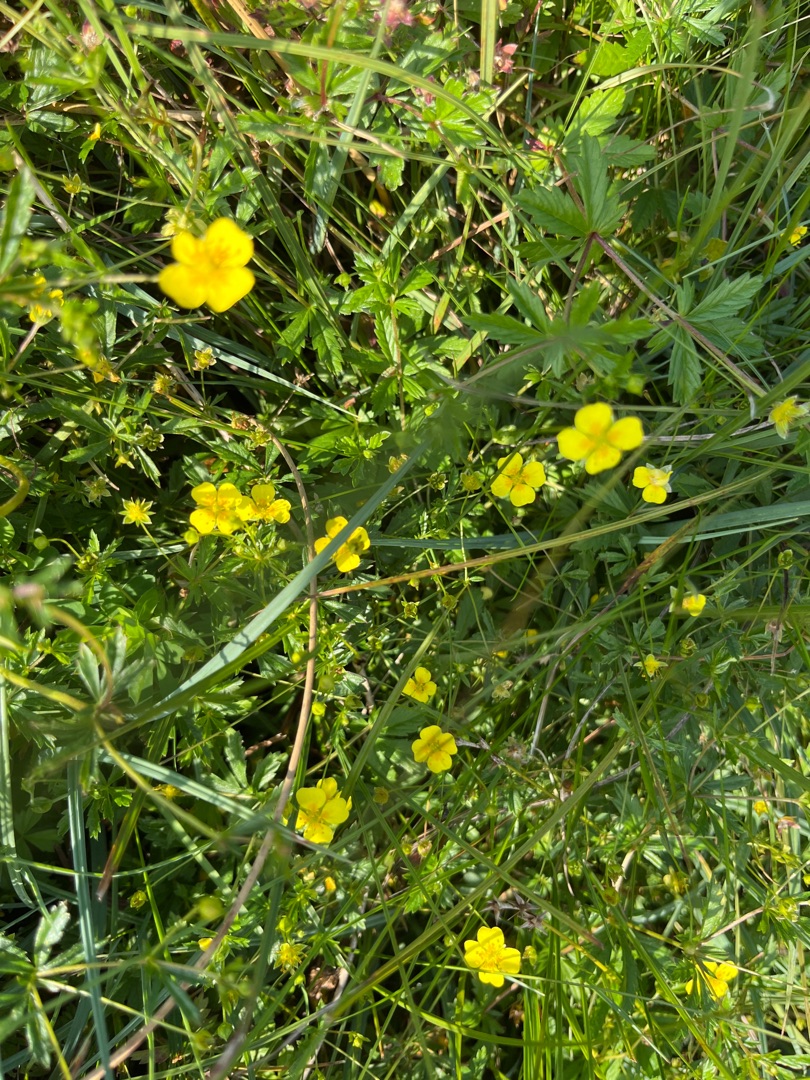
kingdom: Plantae
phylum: Tracheophyta
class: Magnoliopsida
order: Rosales
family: Rosaceae
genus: Potentilla
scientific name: Potentilla erecta
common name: Tormentil
